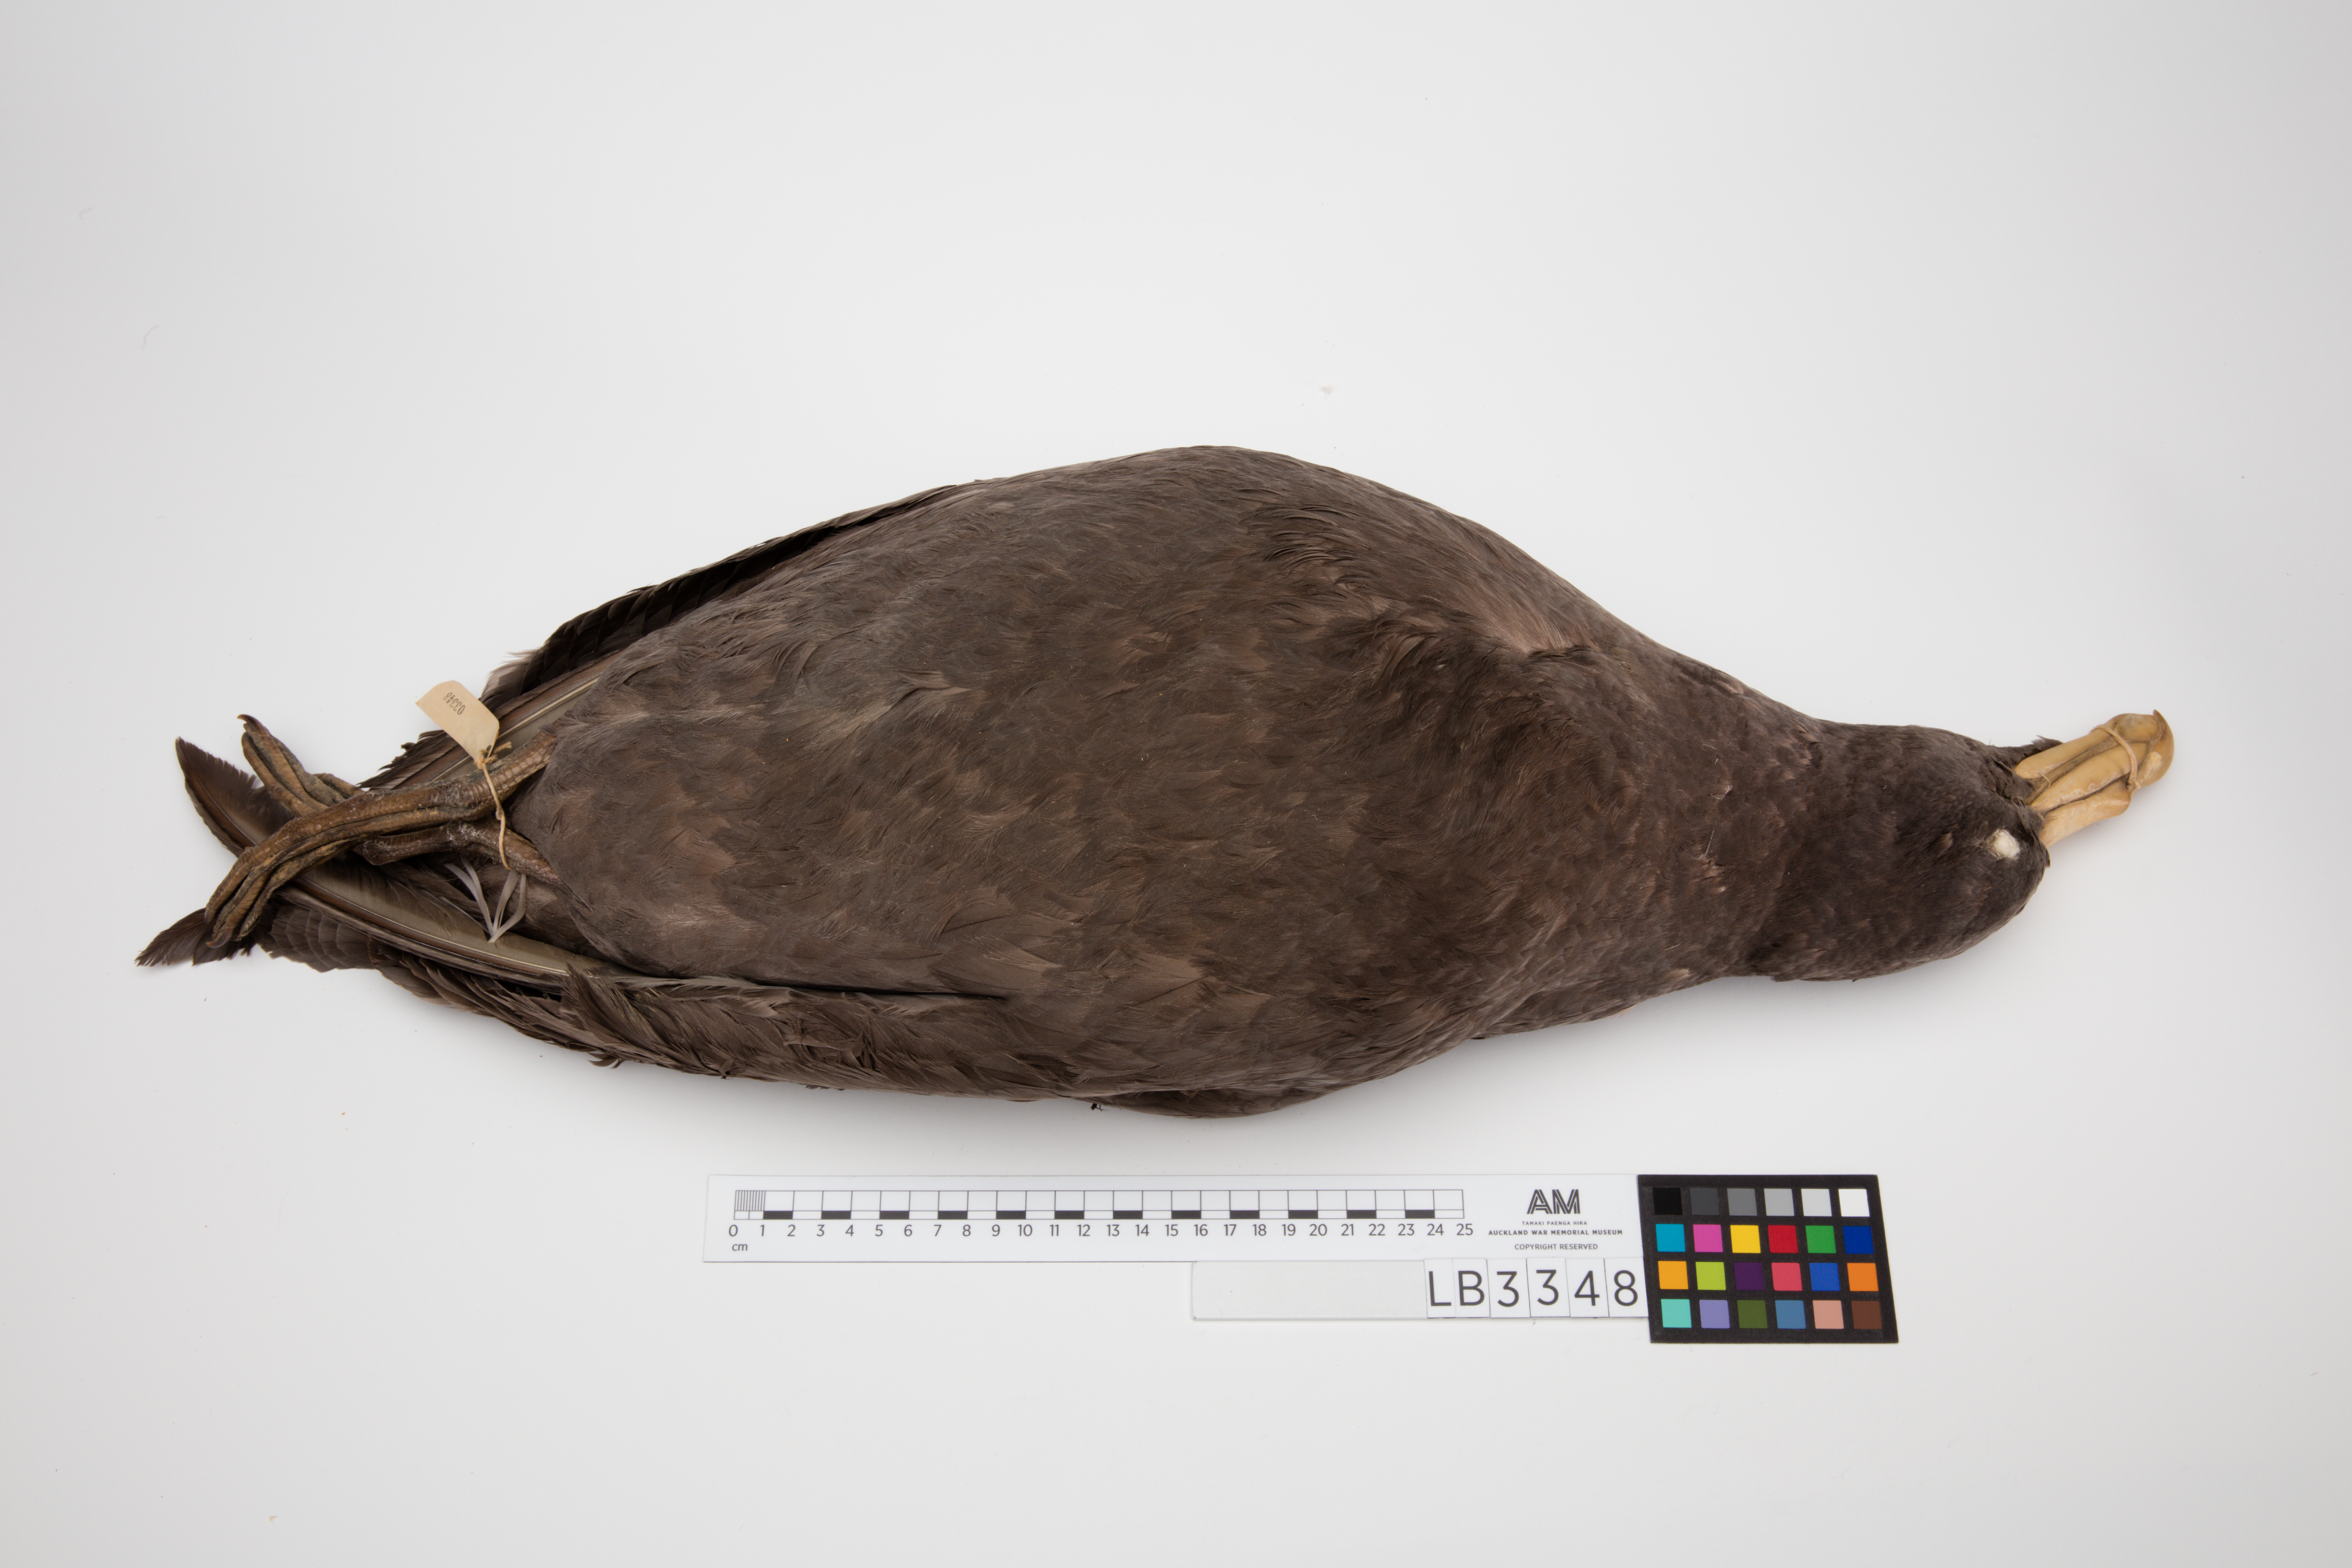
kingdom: Animalia
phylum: Chordata
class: Aves
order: Procellariiformes
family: Procellariidae
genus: Macronectes
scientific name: Macronectes giganteus
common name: Southern giant petrel
